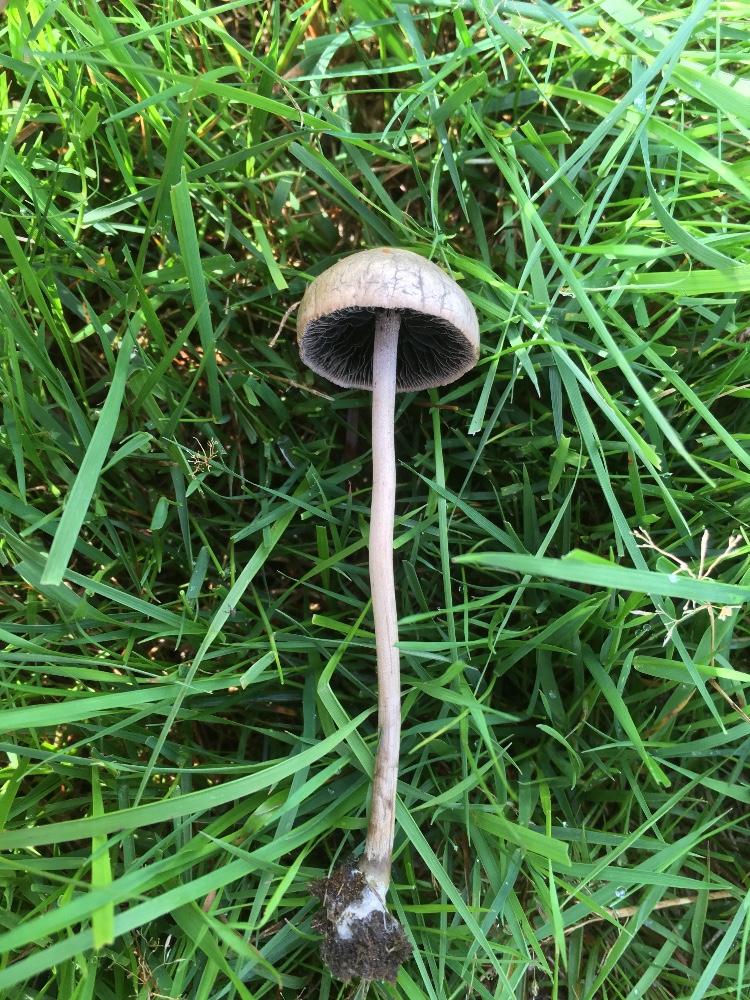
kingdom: Fungi
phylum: Basidiomycota
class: Agaricomycetes
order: Agaricales
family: Bolbitiaceae
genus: Panaeolus
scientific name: Panaeolus subfirmus
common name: fælled-glanshat
